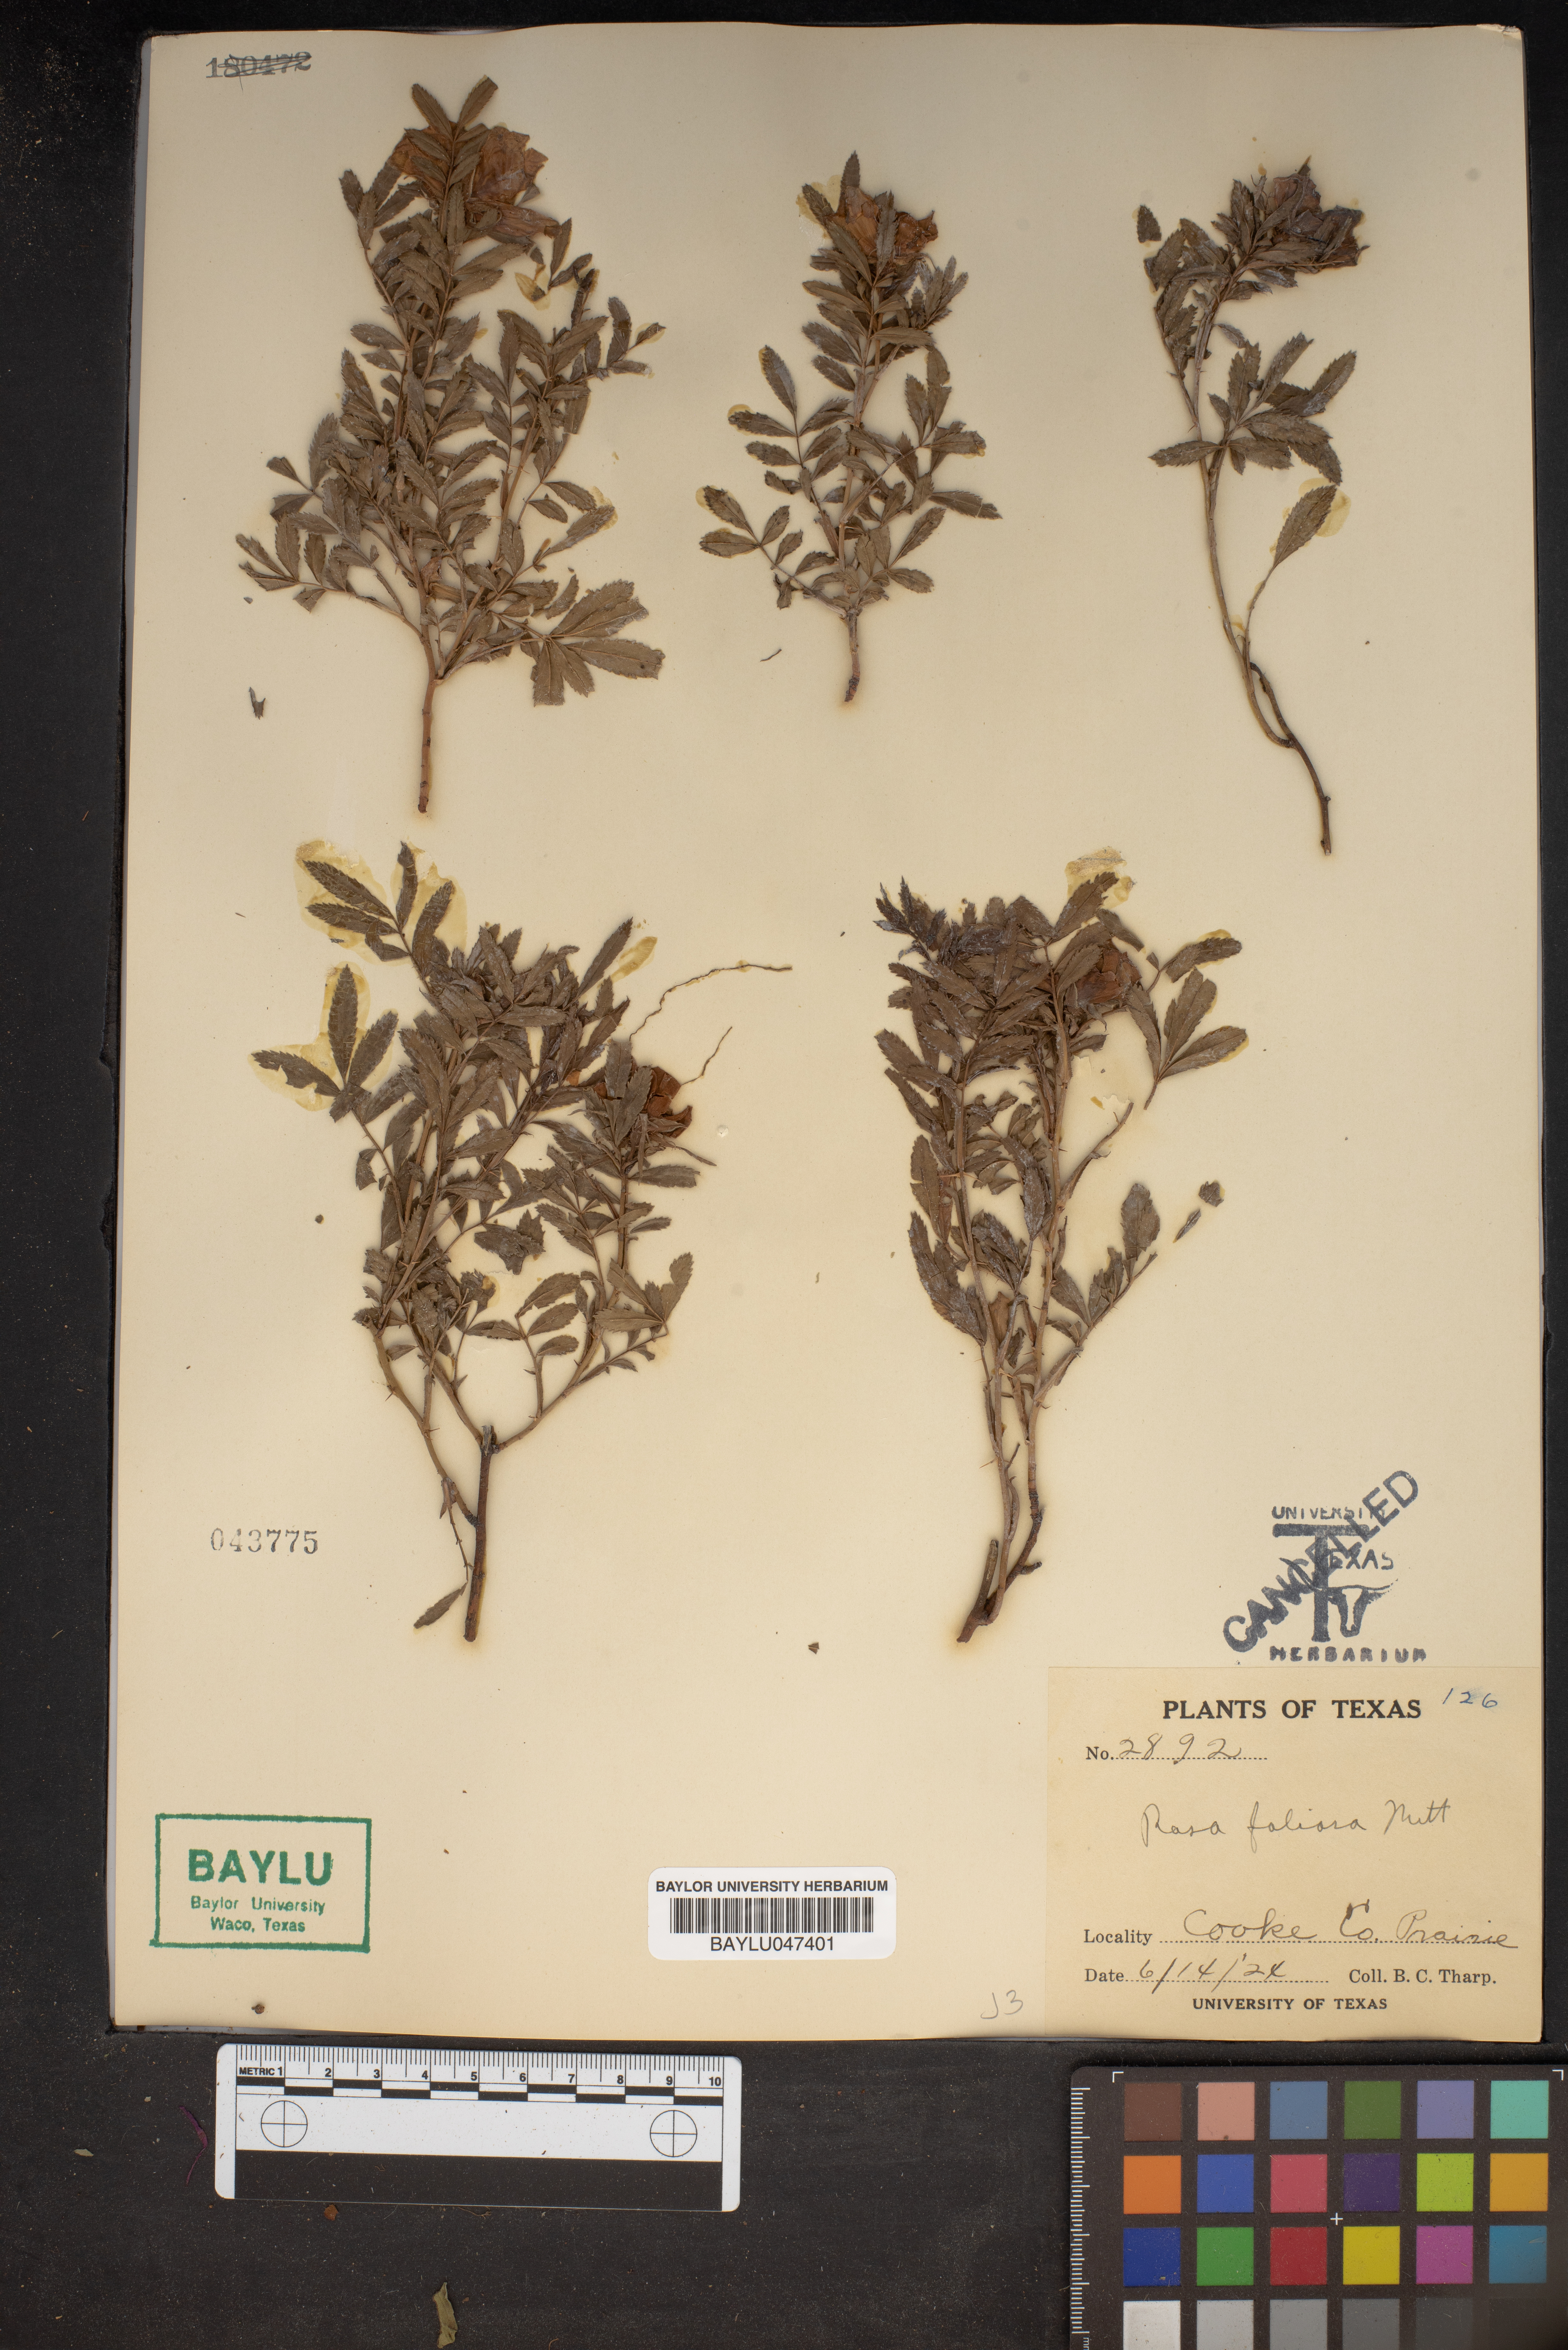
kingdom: Plantae
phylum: Tracheophyta
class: Magnoliopsida
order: Rosales
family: Rosaceae
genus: Rosa
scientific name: Rosa foliolosa
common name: White prairie rose
